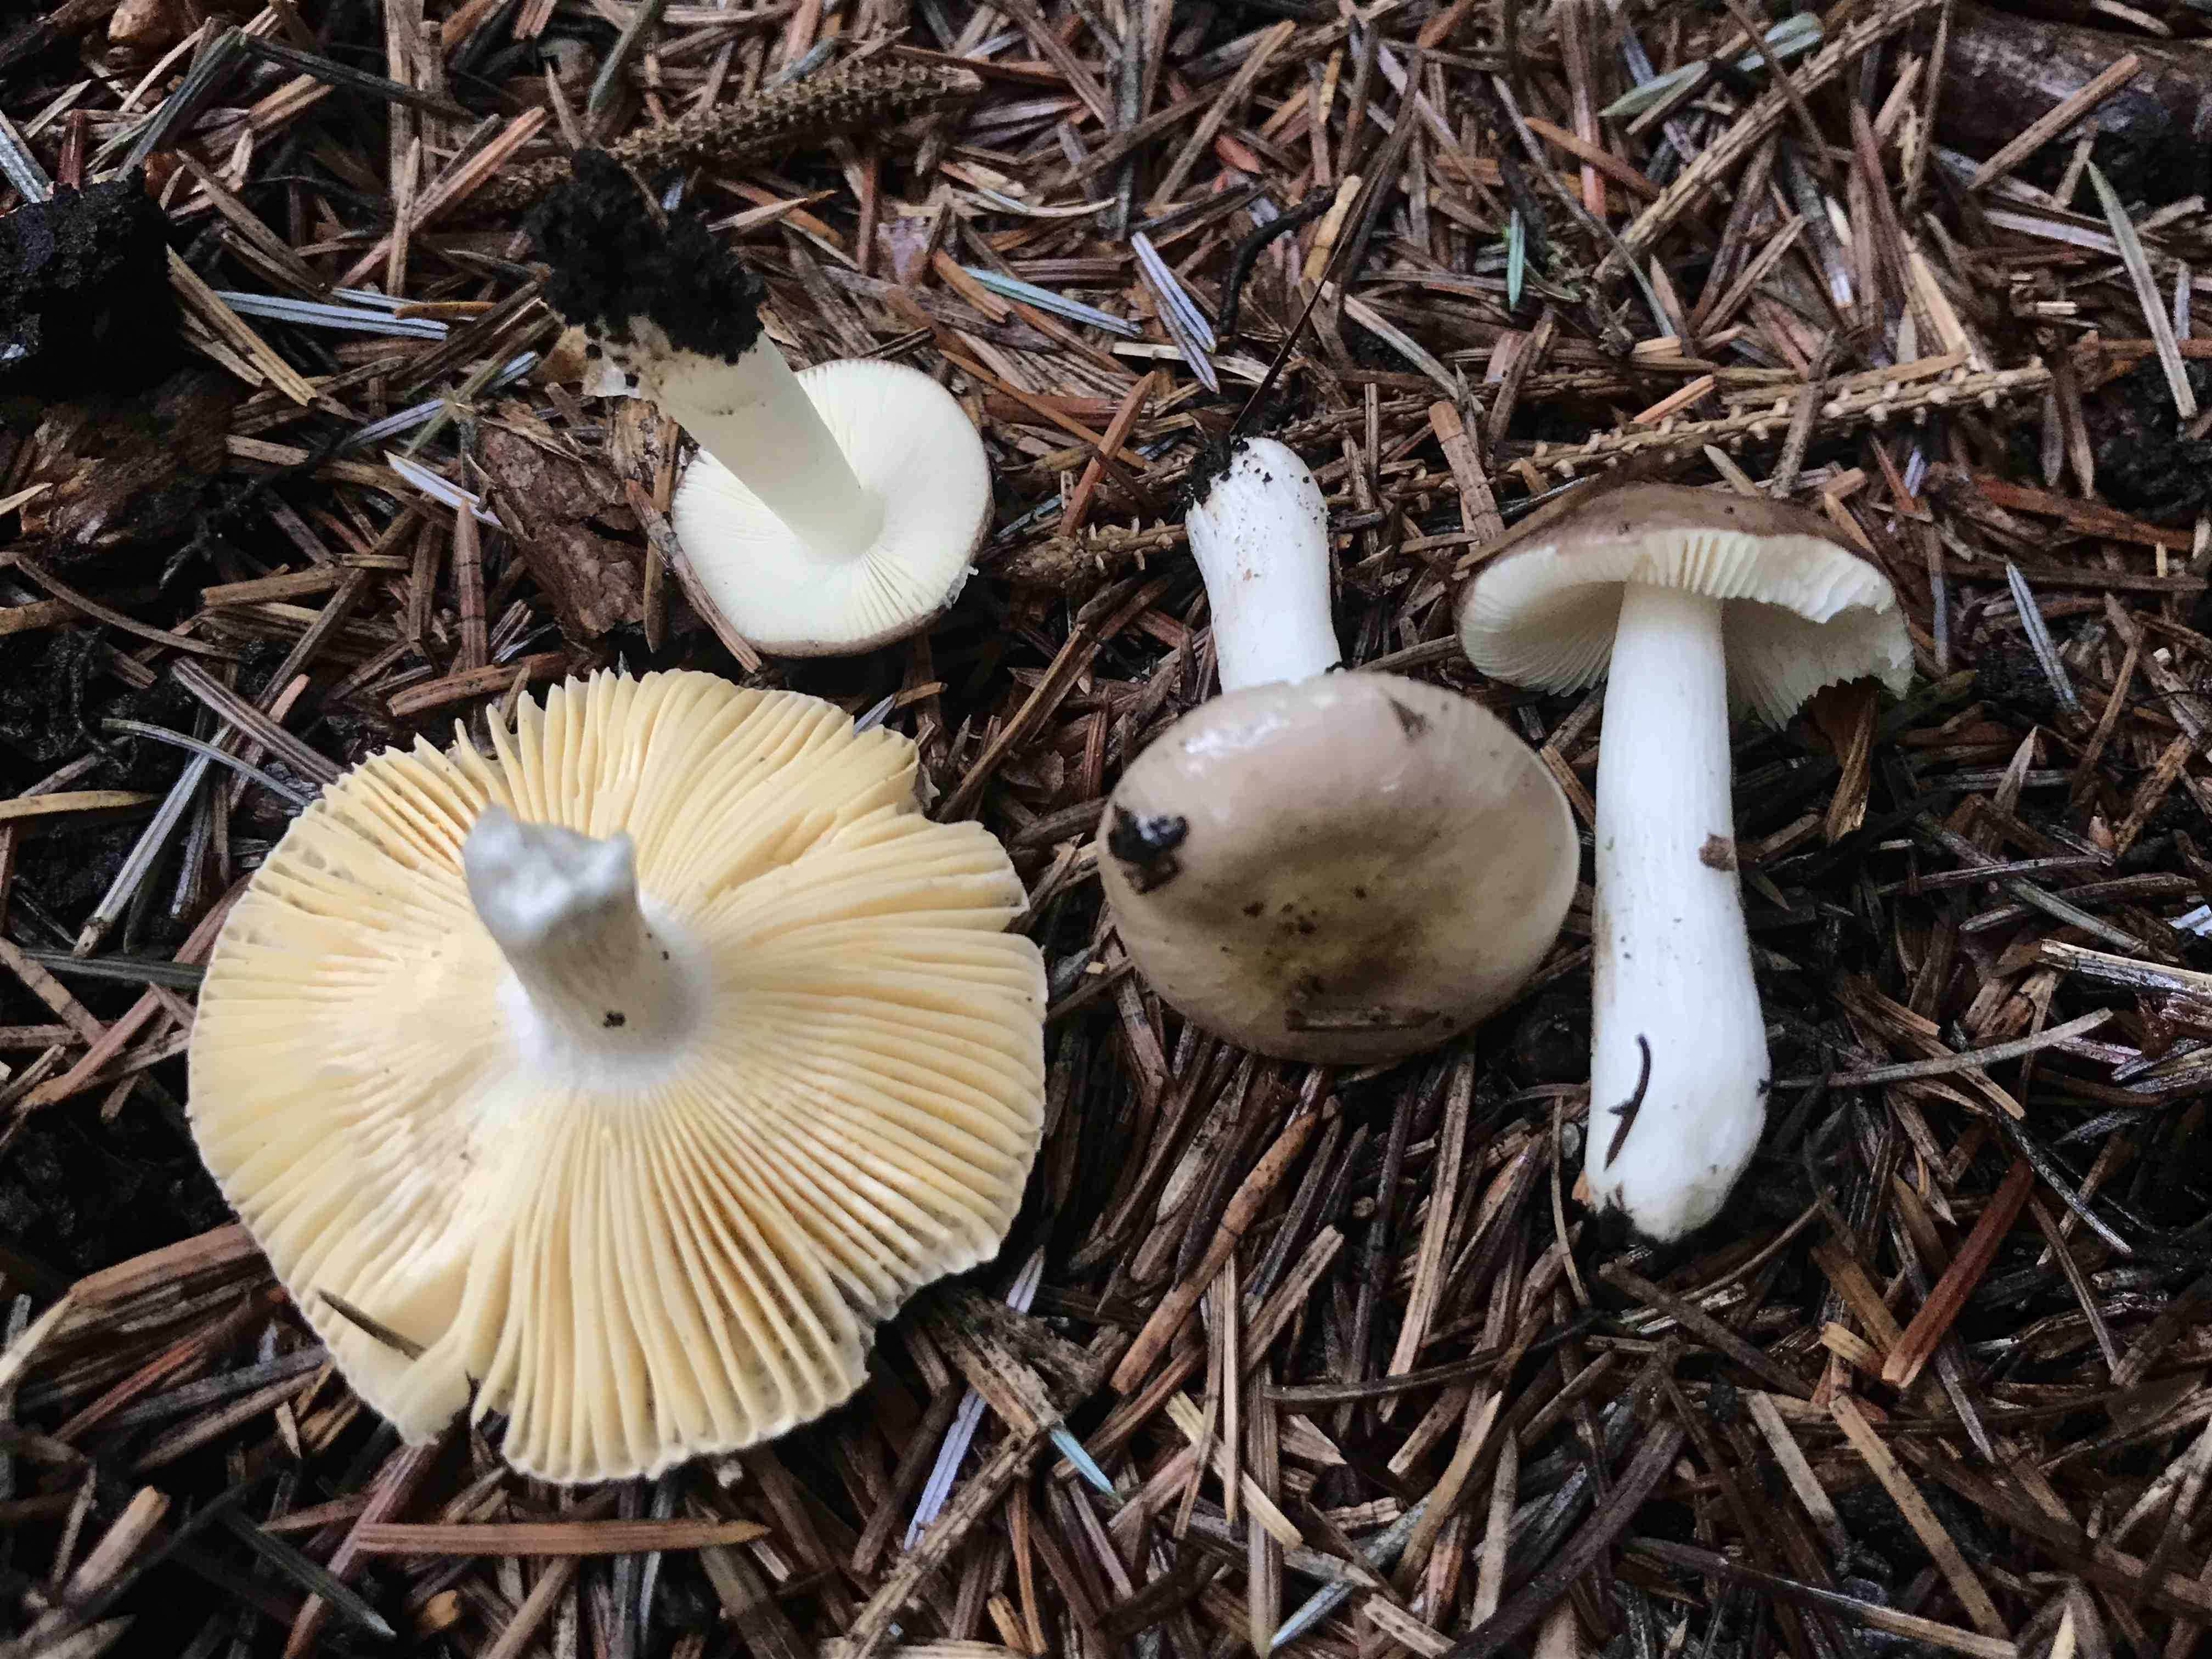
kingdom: Fungi
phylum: Basidiomycota
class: Agaricomycetes
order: Russulales
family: Russulaceae
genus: Russula
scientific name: Russula nauseosa
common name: spinkel skørhat
